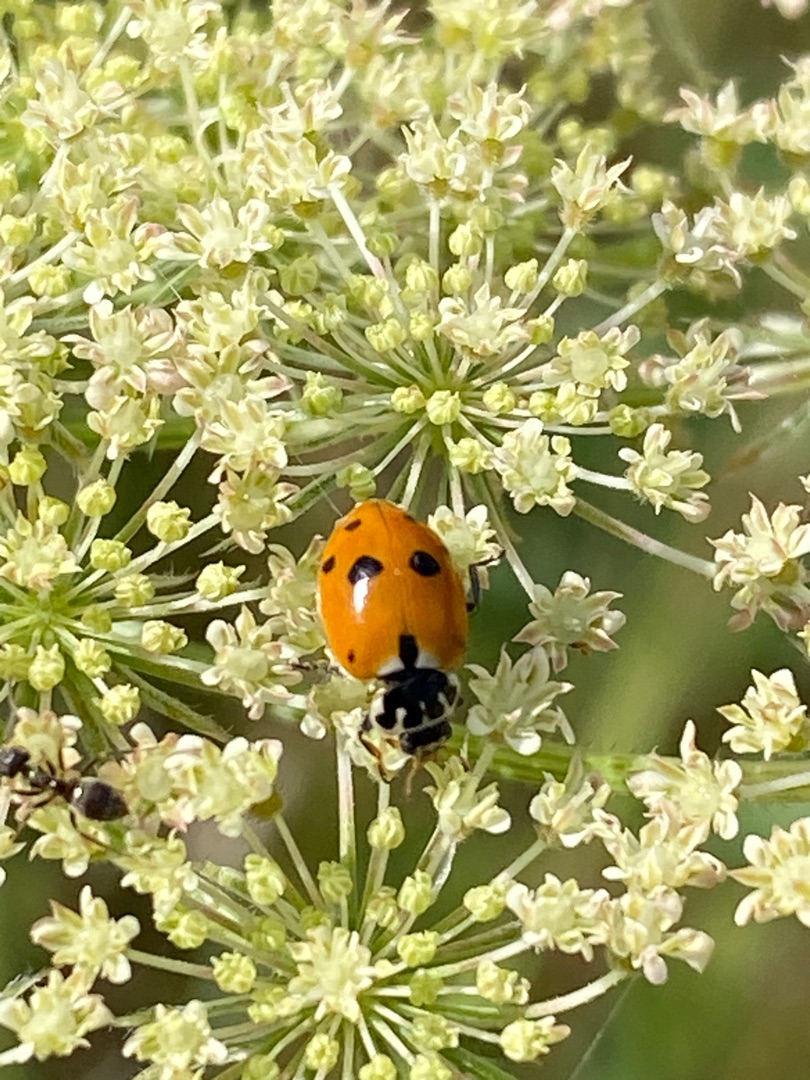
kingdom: Animalia
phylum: Arthropoda
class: Insecta
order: Coleoptera
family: Coccinellidae
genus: Hippodamia
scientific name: Hippodamia variegata
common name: Adonis' mariehøne
